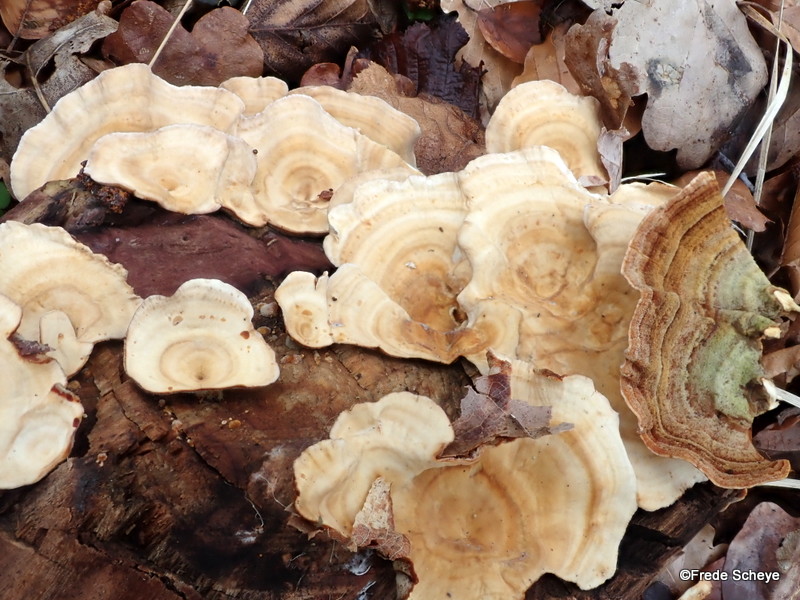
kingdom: Fungi
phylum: Basidiomycota
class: Agaricomycetes
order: Polyporales
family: Polyporaceae
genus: Trametes
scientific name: Trametes versicolor
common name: broget læderporesvamp
